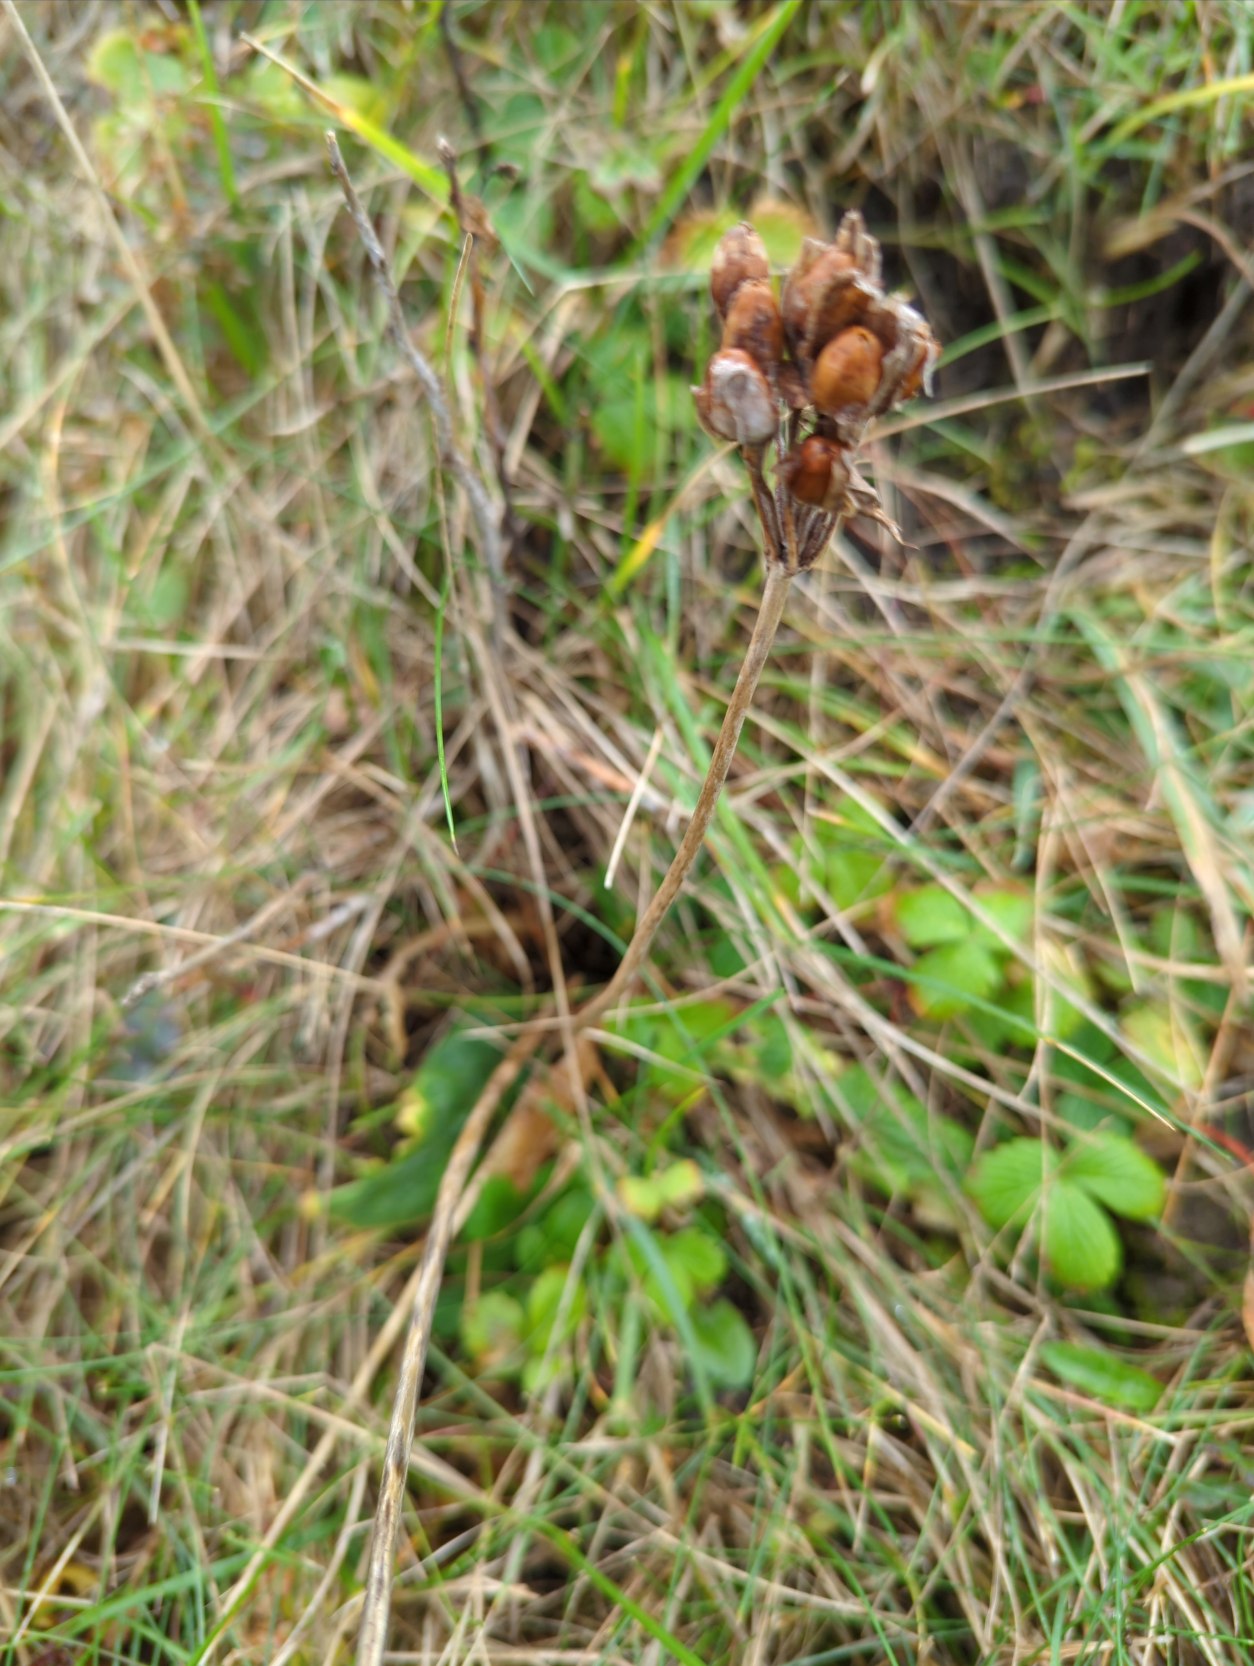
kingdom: Plantae
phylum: Tracheophyta
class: Magnoliopsida
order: Ericales
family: Primulaceae
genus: Primula
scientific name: Primula veris
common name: Hulkravet kodriver
